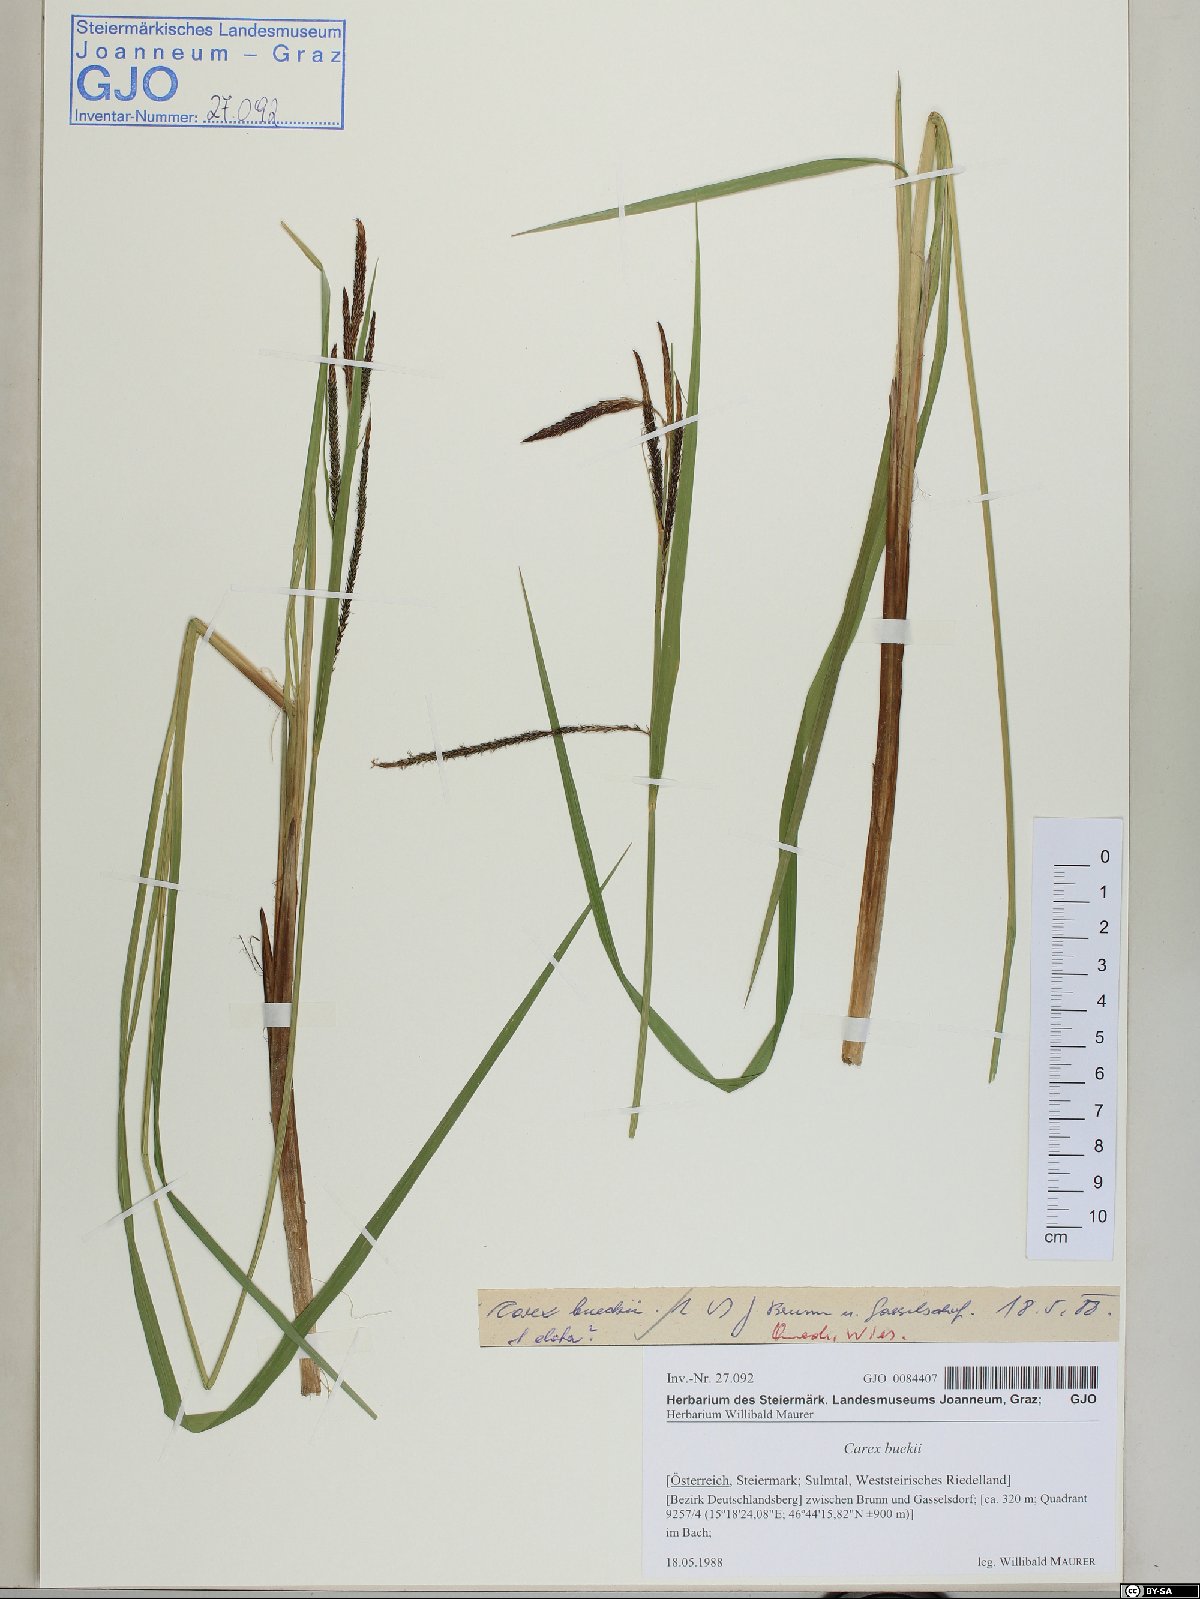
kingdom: Plantae
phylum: Tracheophyta
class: Liliopsida
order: Poales
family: Cyperaceae
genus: Carex
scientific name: Carex buekii
